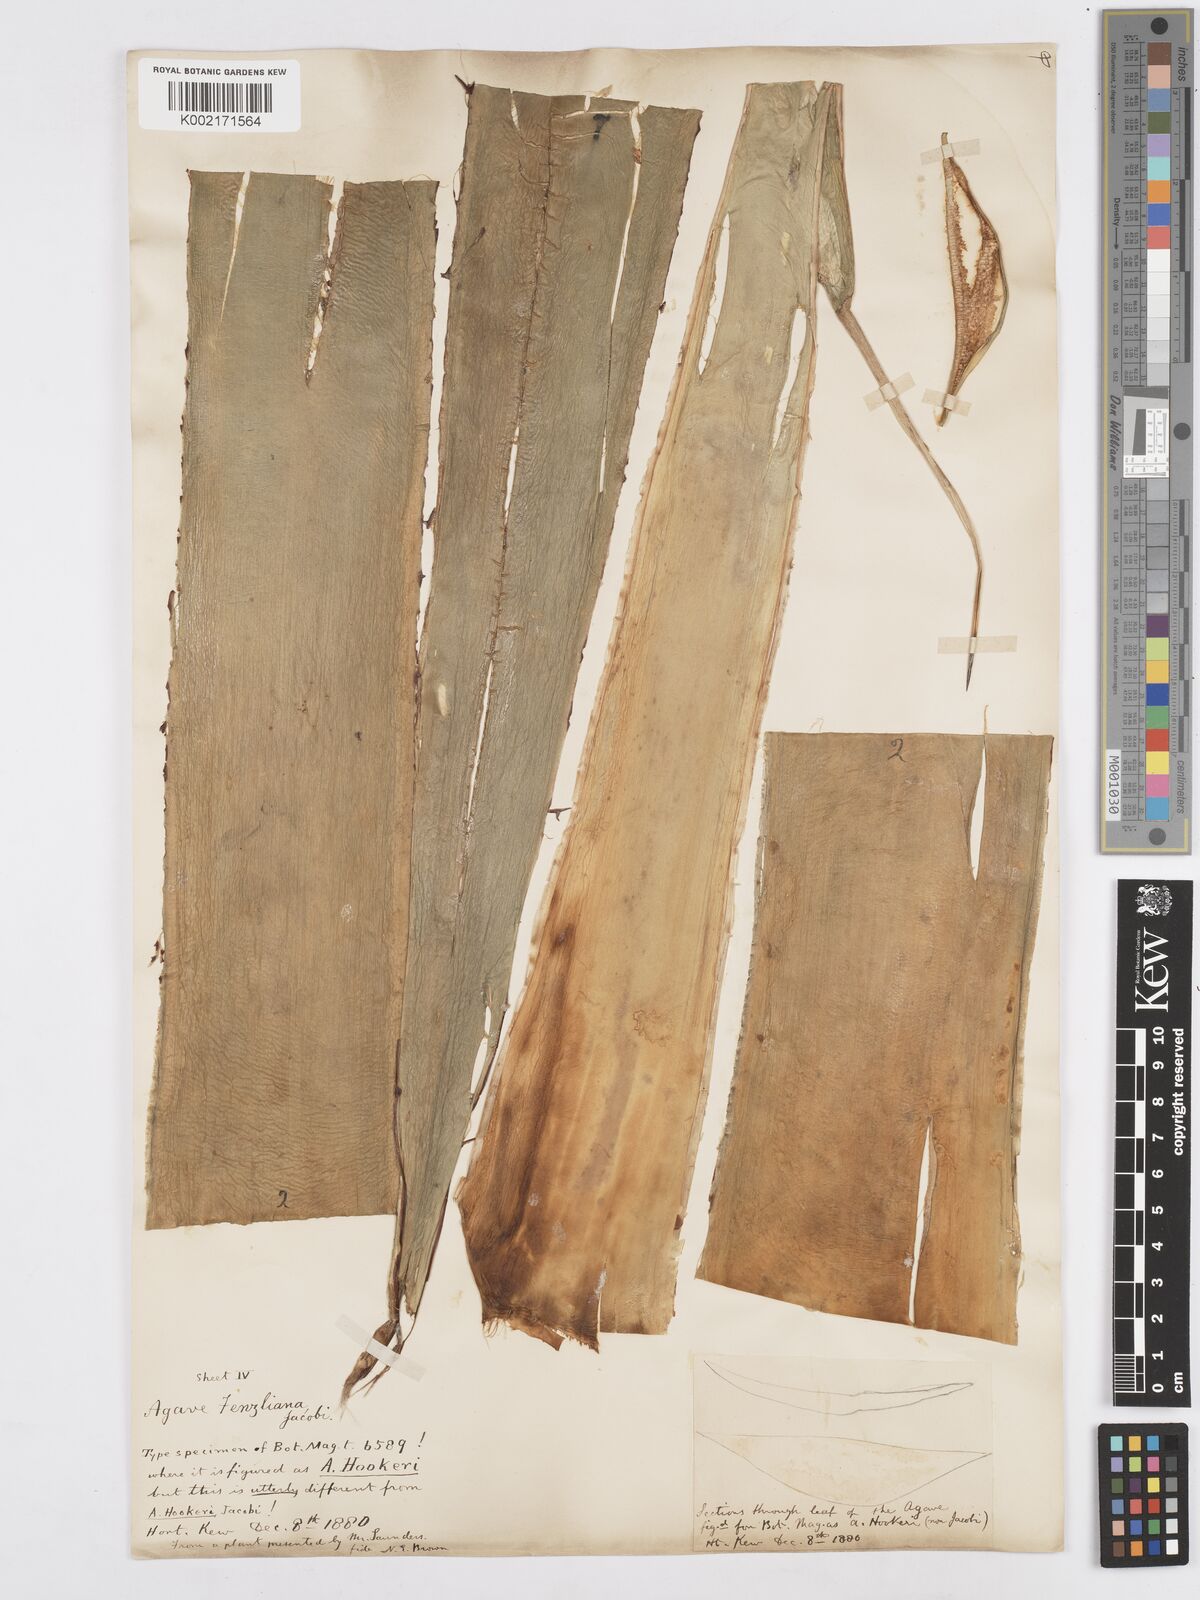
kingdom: Plantae
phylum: Tracheophyta
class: Liliopsida
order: Asparagales
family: Asparagaceae
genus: Agave
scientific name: Agave inaequidens
